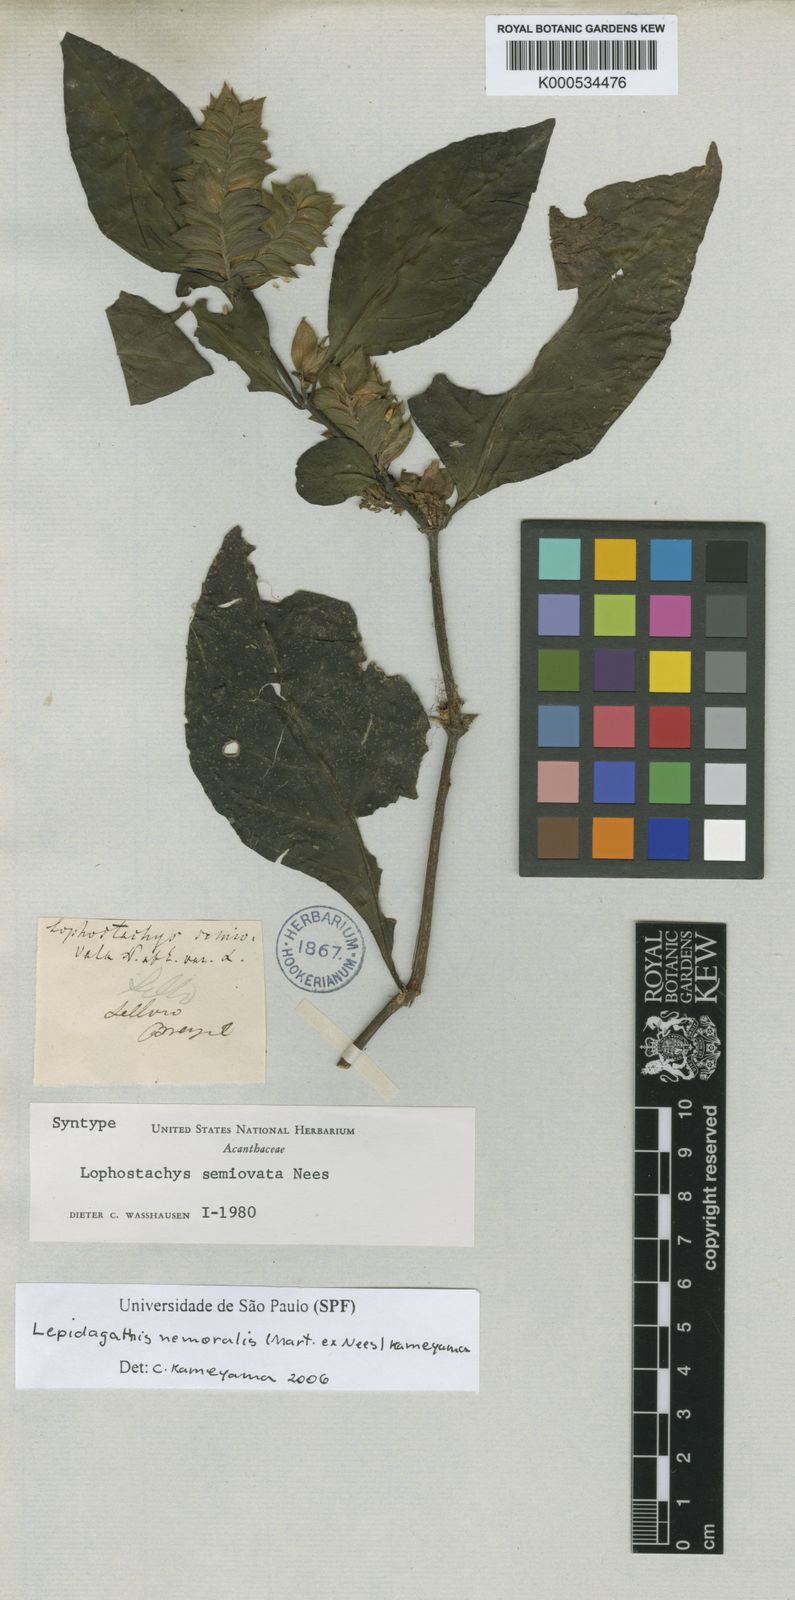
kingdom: Plantae
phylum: Tracheophyta
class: Magnoliopsida
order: Lamiales
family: Acanthaceae
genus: Lepidagathis
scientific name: Lepidagathis nemoralis
